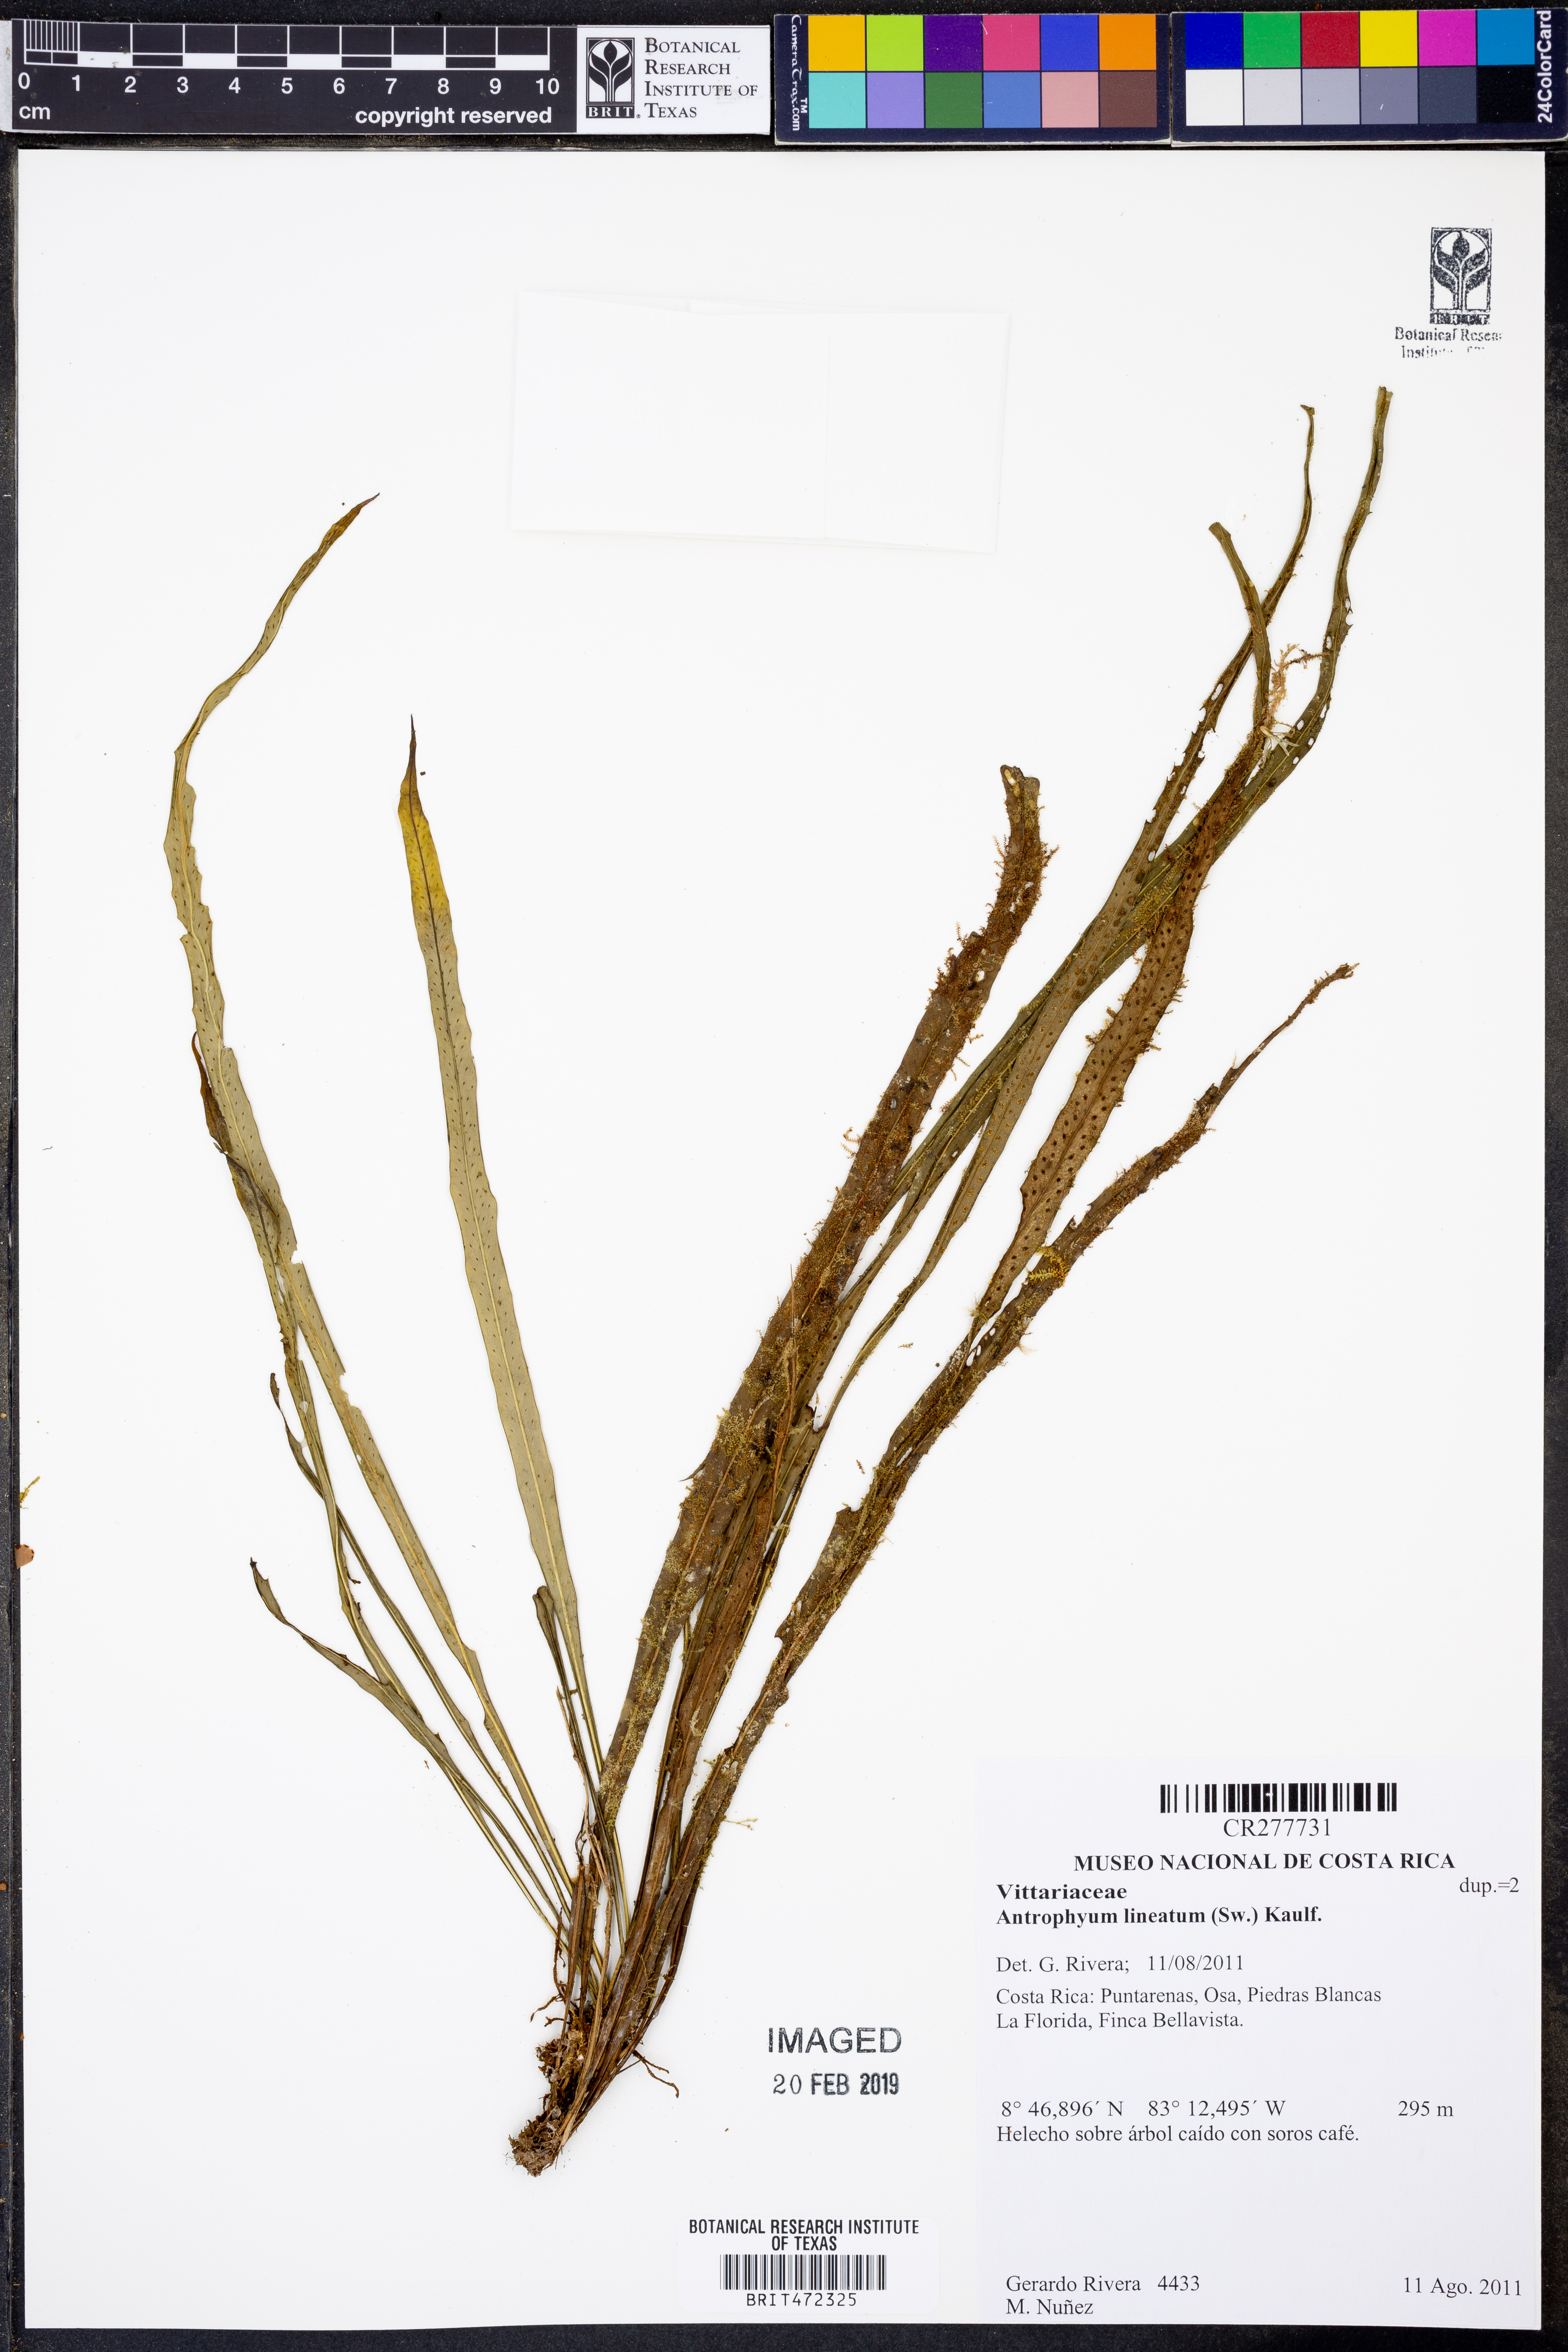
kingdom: Plantae
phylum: Tracheophyta
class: Polypodiopsida
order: Polypodiales
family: Pteridaceae
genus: Polytaenium
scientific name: Polytaenium lineatum
